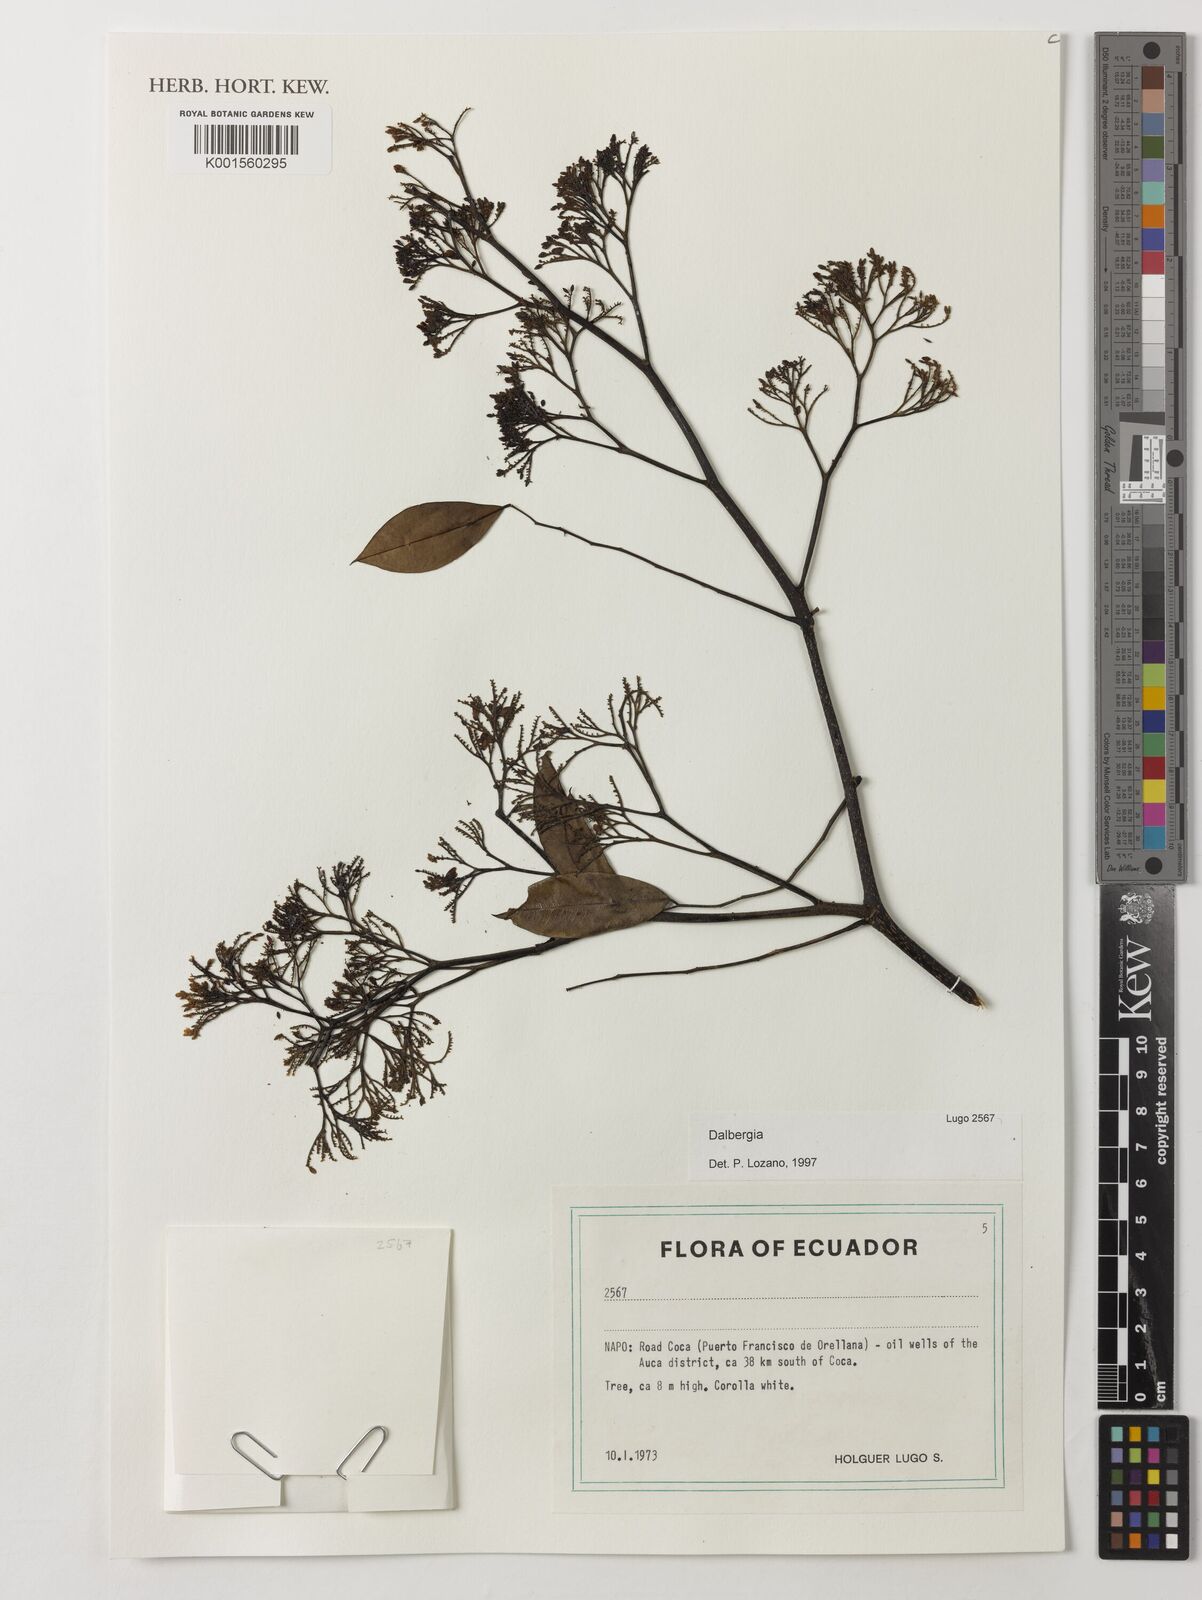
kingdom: Plantae
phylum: Tracheophyta
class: Magnoliopsida
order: Fabales
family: Fabaceae
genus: Dalbergia
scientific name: Dalbergia
